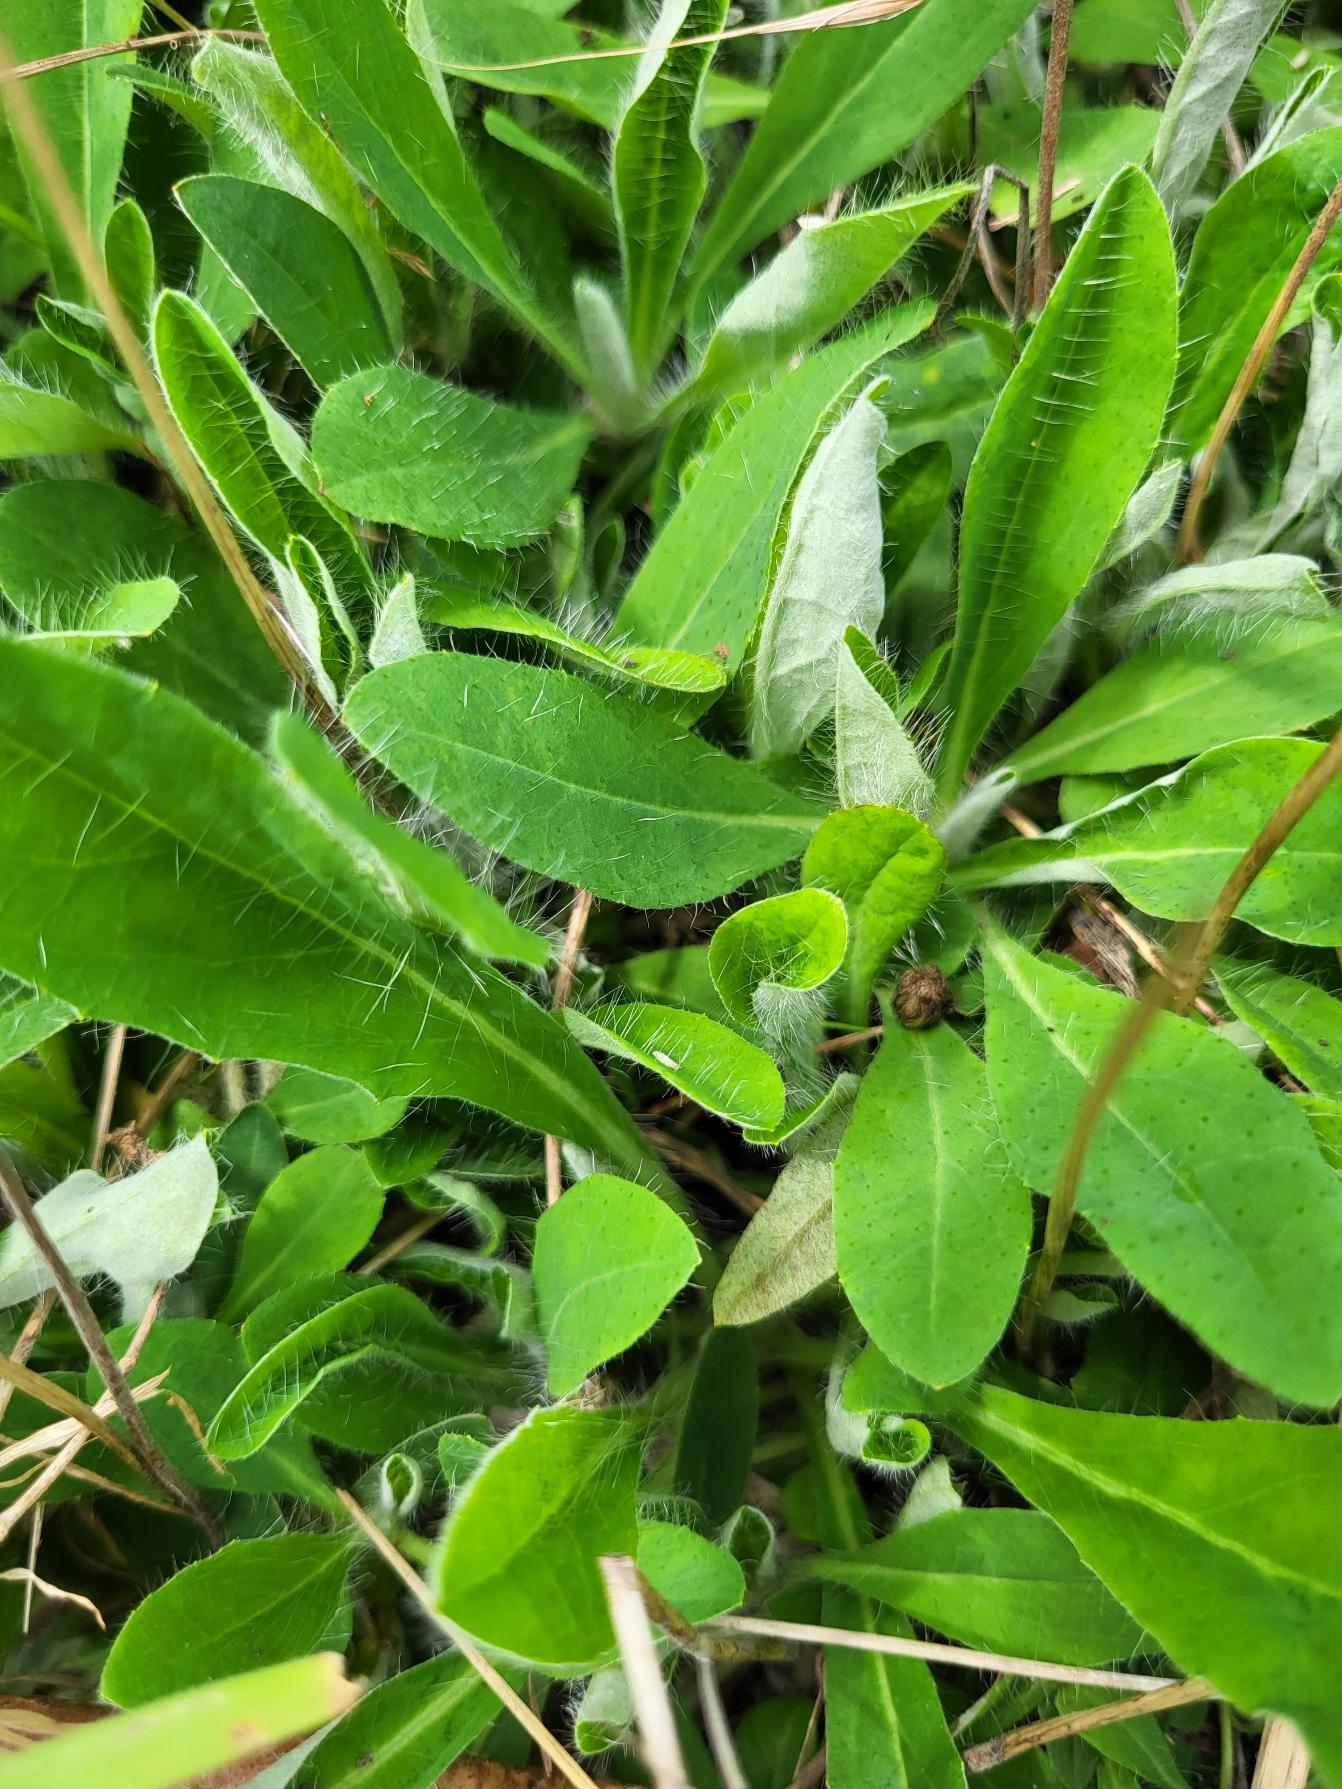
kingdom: Plantae
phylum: Tracheophyta
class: Magnoliopsida
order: Asterales
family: Asteraceae
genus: Pilosella
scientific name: Pilosella officinarum
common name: Håret høgeurt
